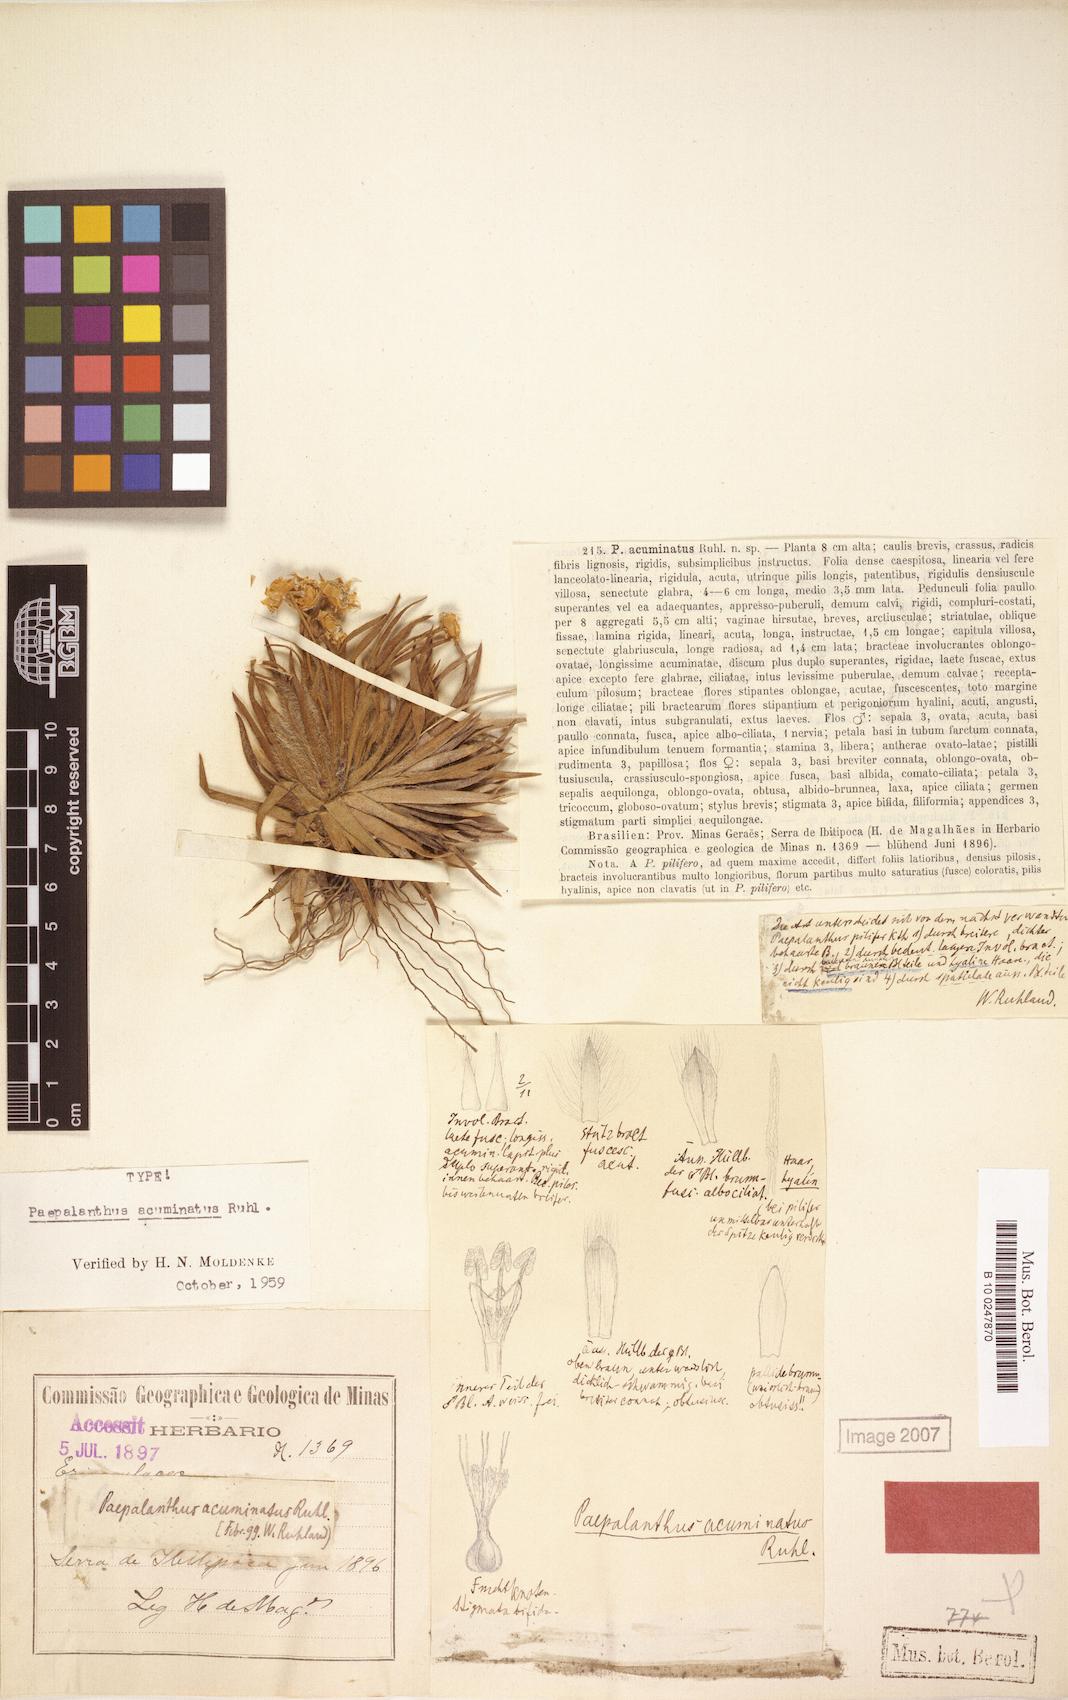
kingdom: Plantae
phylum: Tracheophyta
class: Liliopsida
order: Poales
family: Eriocaulaceae
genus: Paepalanthus
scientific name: Paepalanthus acuminatus
